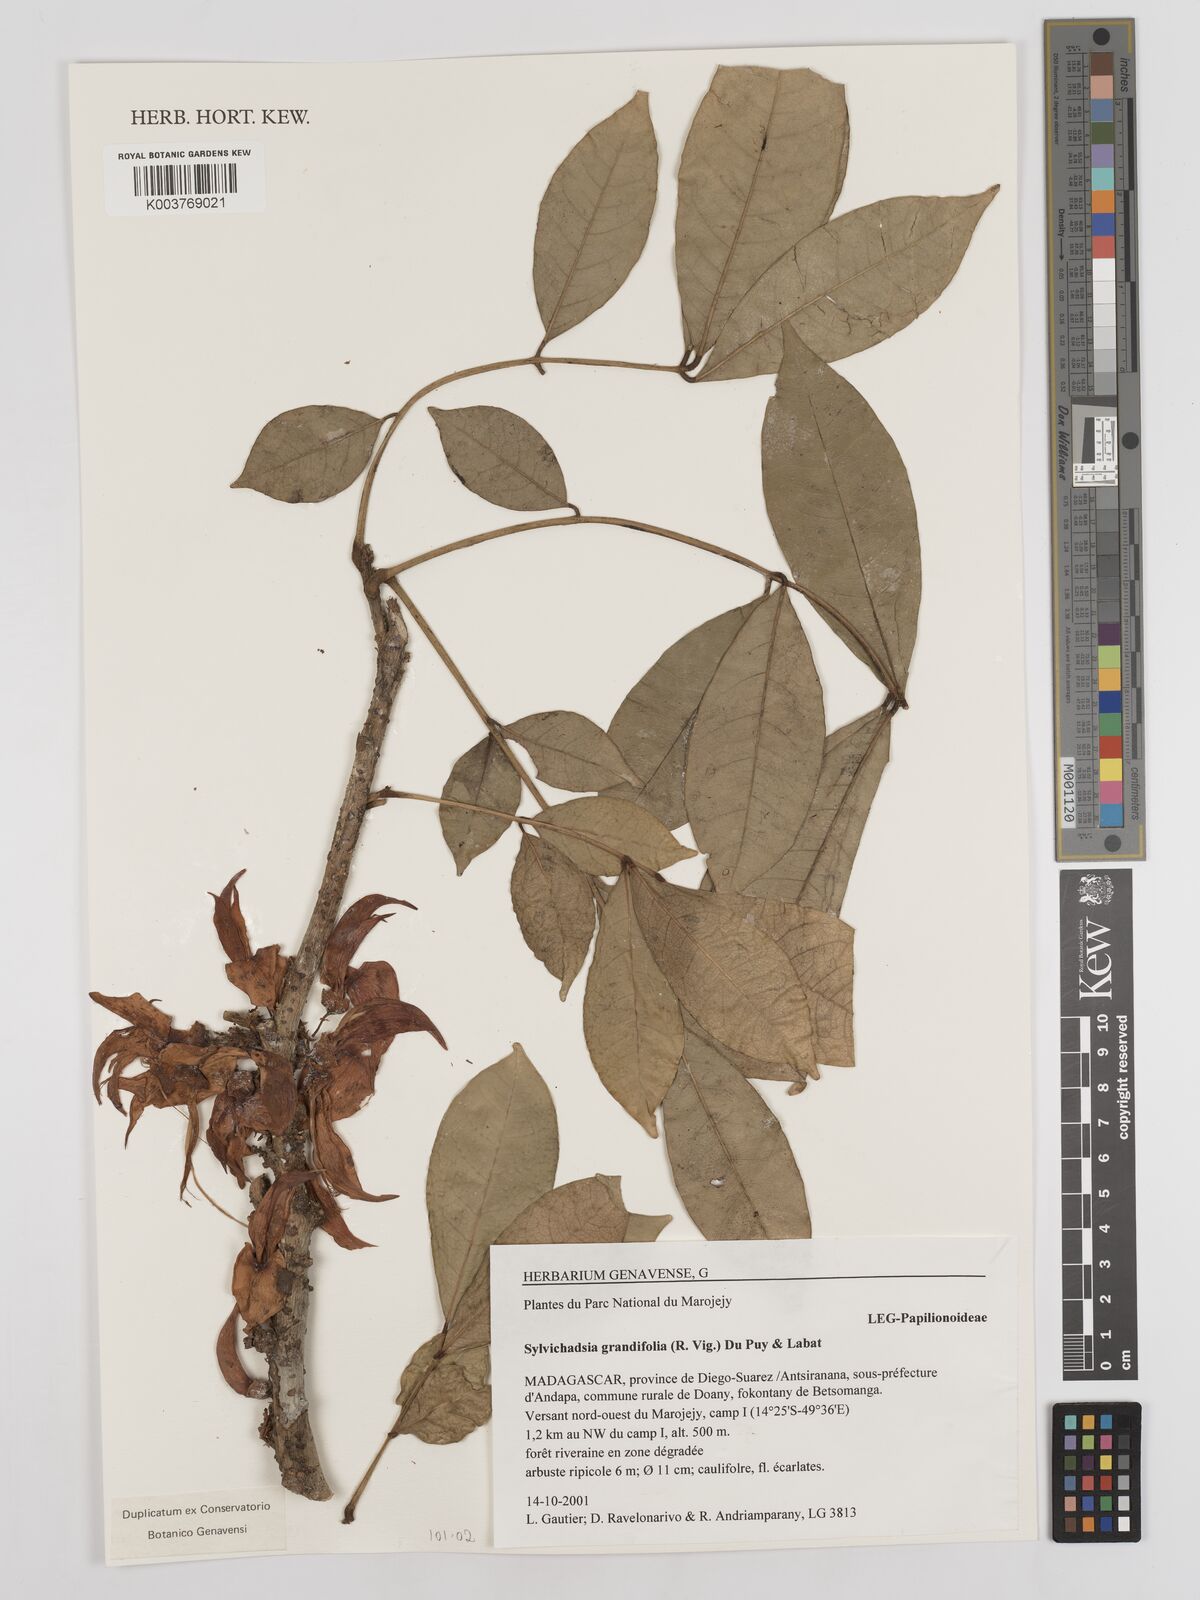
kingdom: Plantae
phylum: Tracheophyta
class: Magnoliopsida
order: Fabales
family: Fabaceae
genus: Sylvichadsia
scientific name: Sylvichadsia grandifolia
